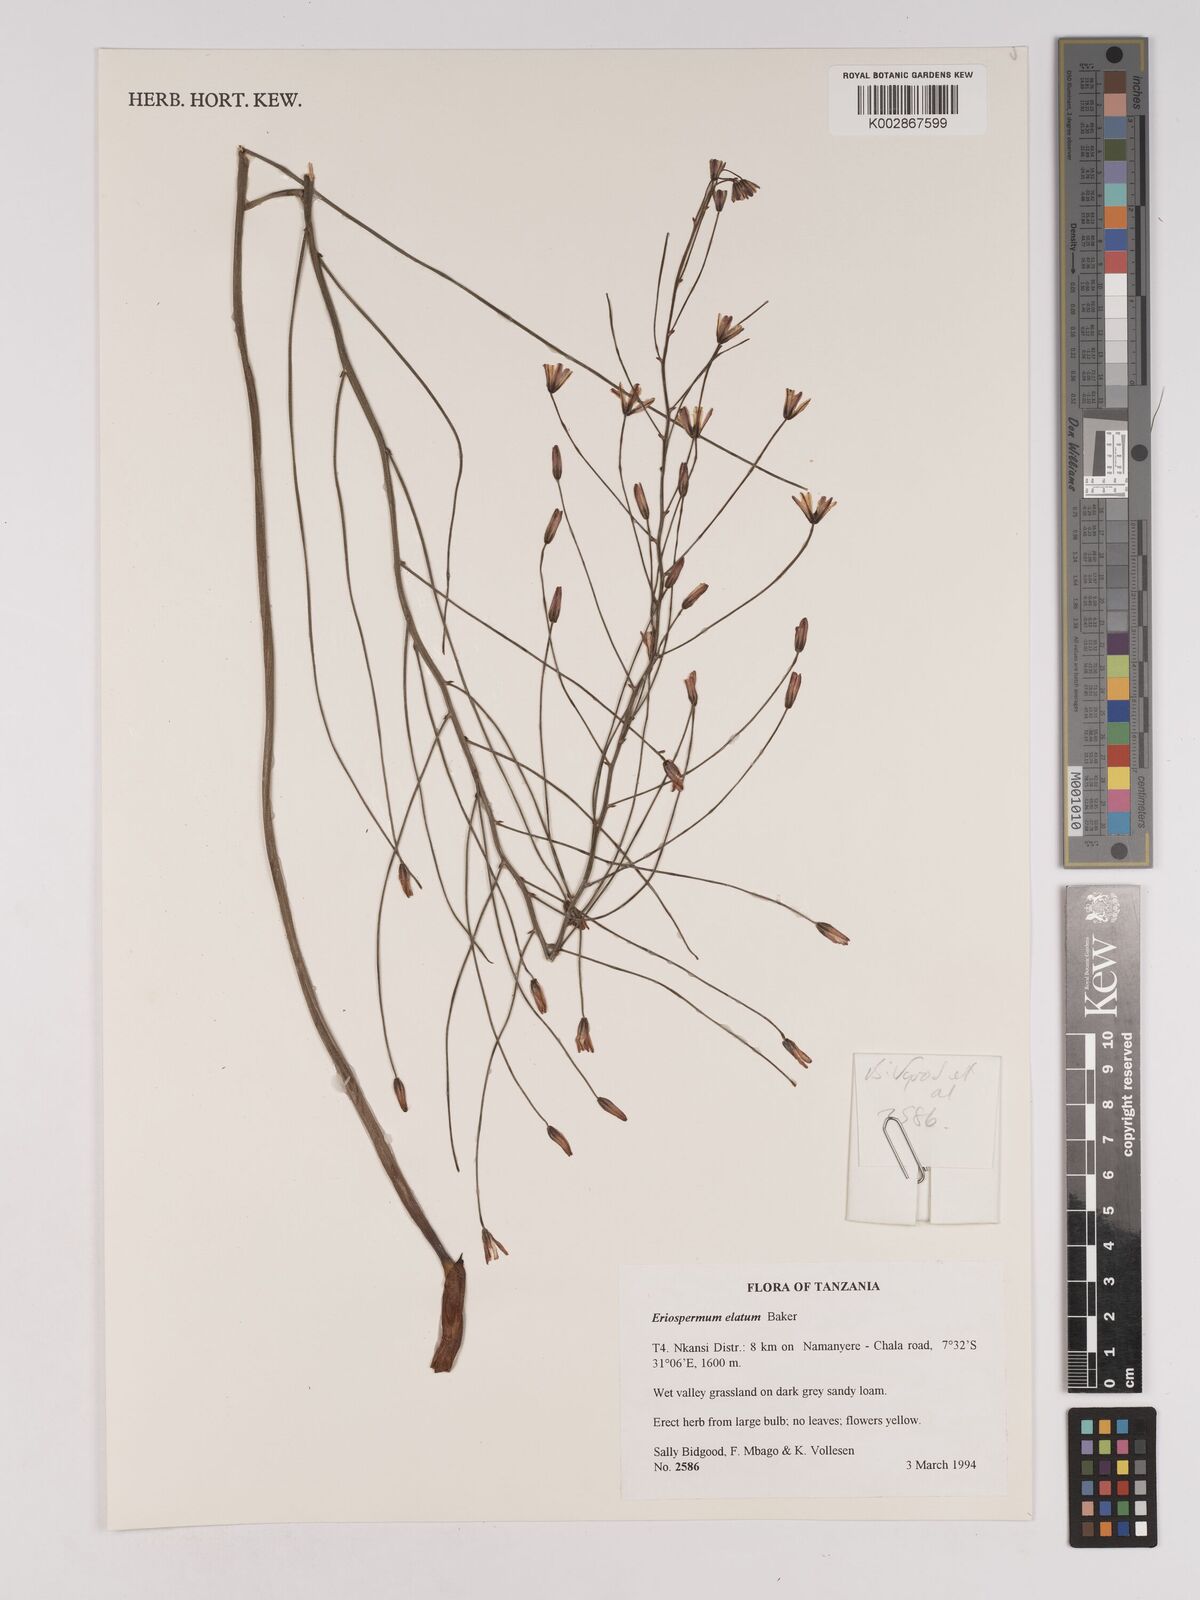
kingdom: Plantae
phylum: Tracheophyta
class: Liliopsida
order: Asparagales
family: Asparagaceae
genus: Eriospermum
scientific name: Eriospermum abyssinicum
